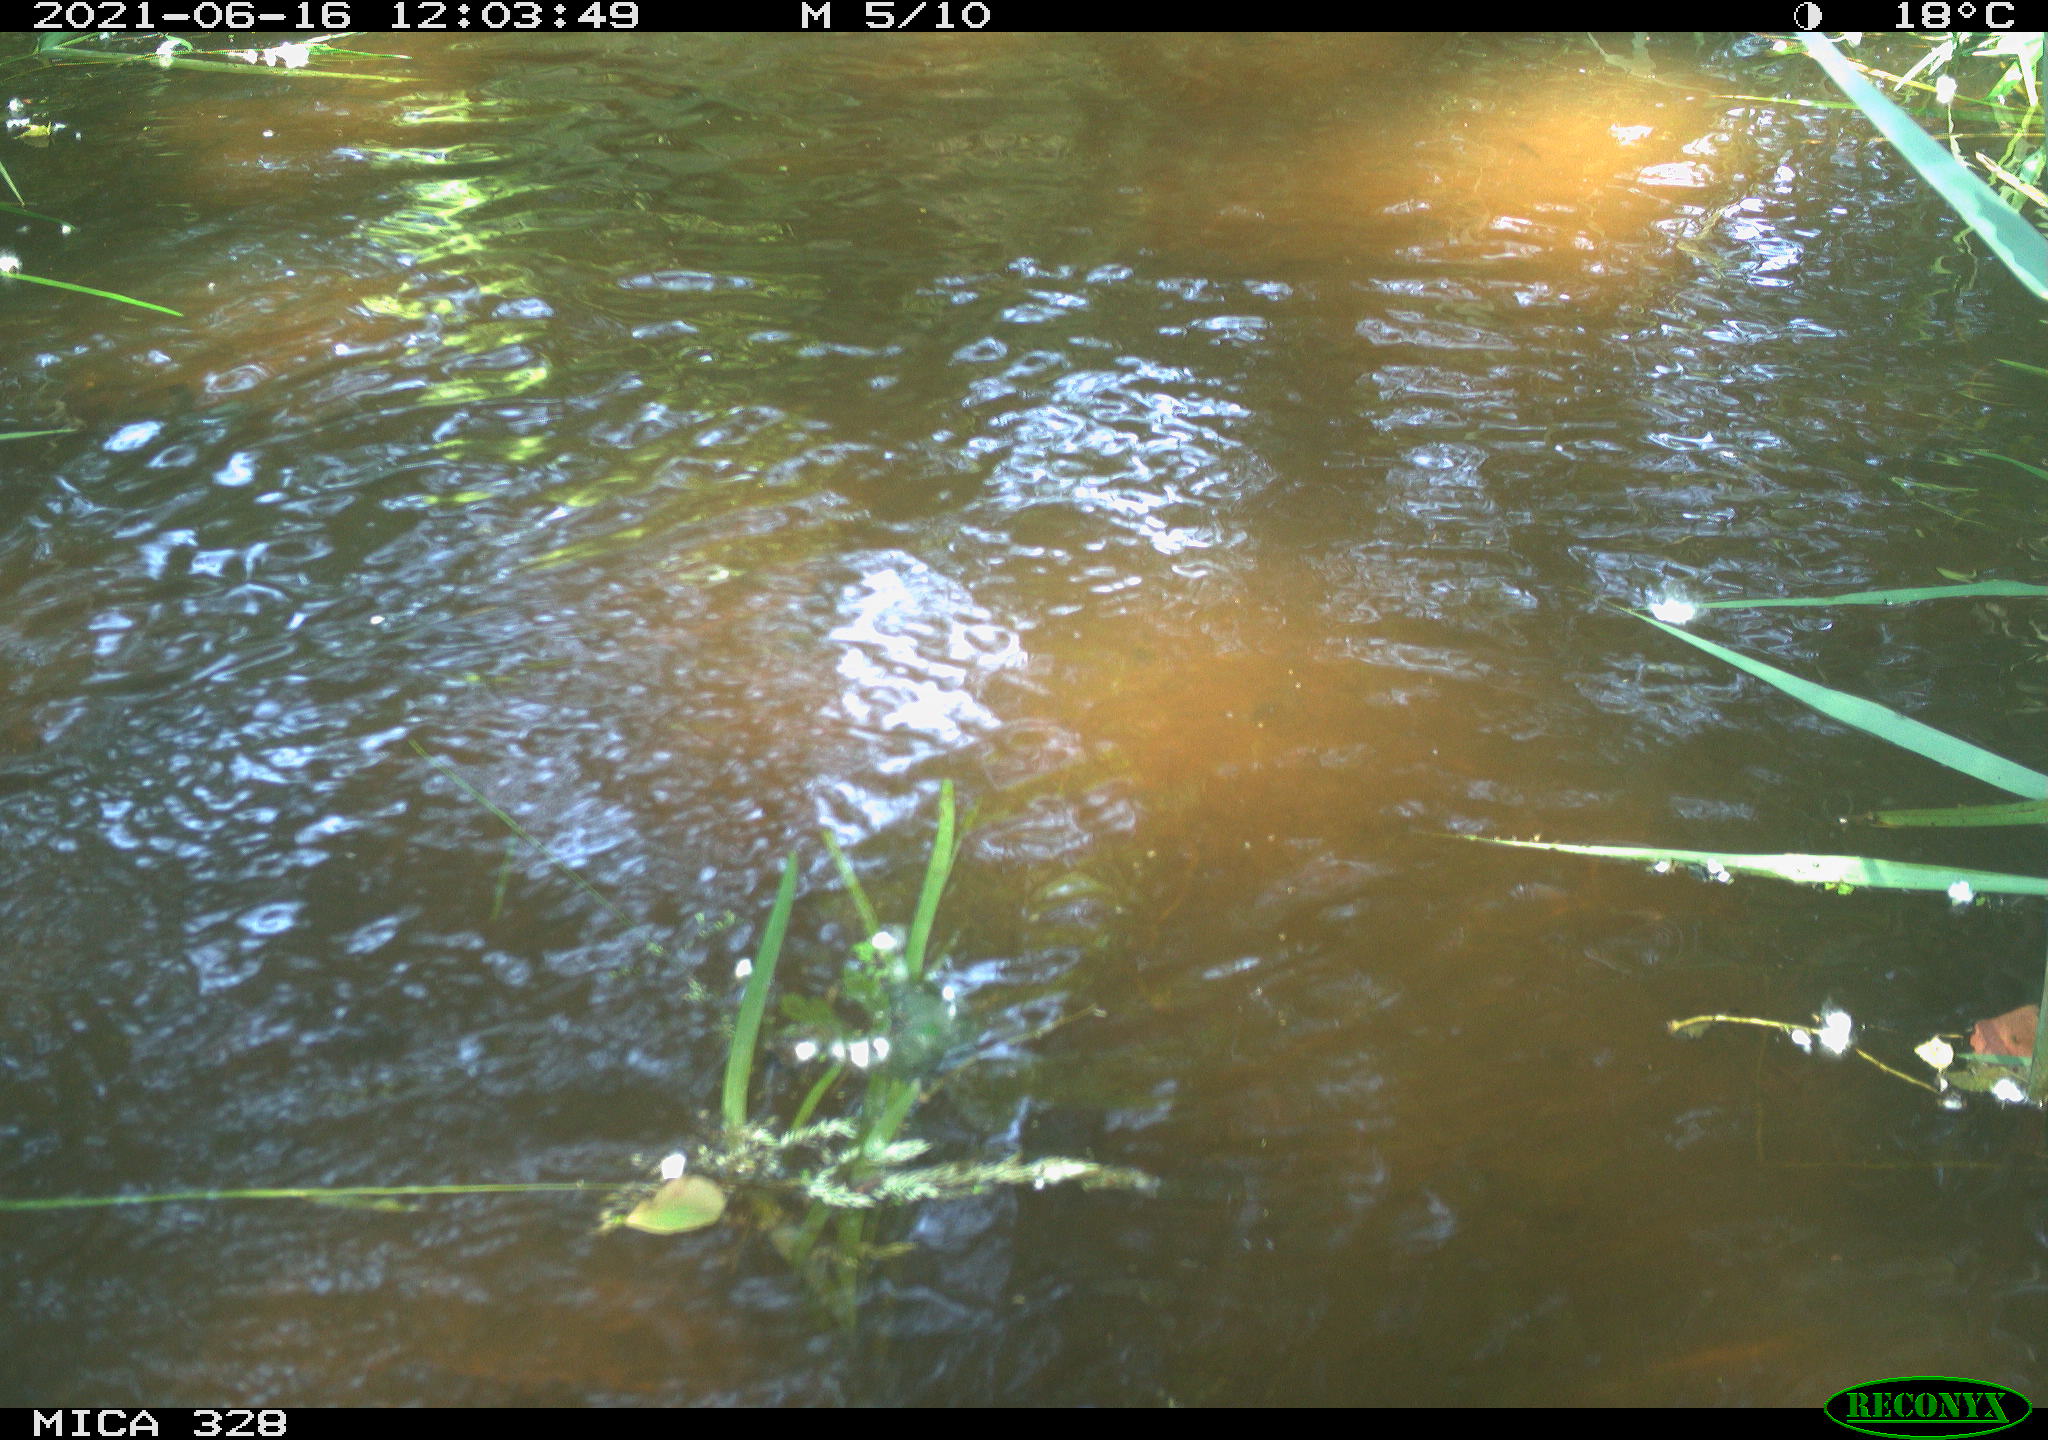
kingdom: Animalia
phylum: Chordata
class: Aves
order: Anseriformes
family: Anatidae
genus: Aix
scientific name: Aix galericulata
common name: Mandarin duck
